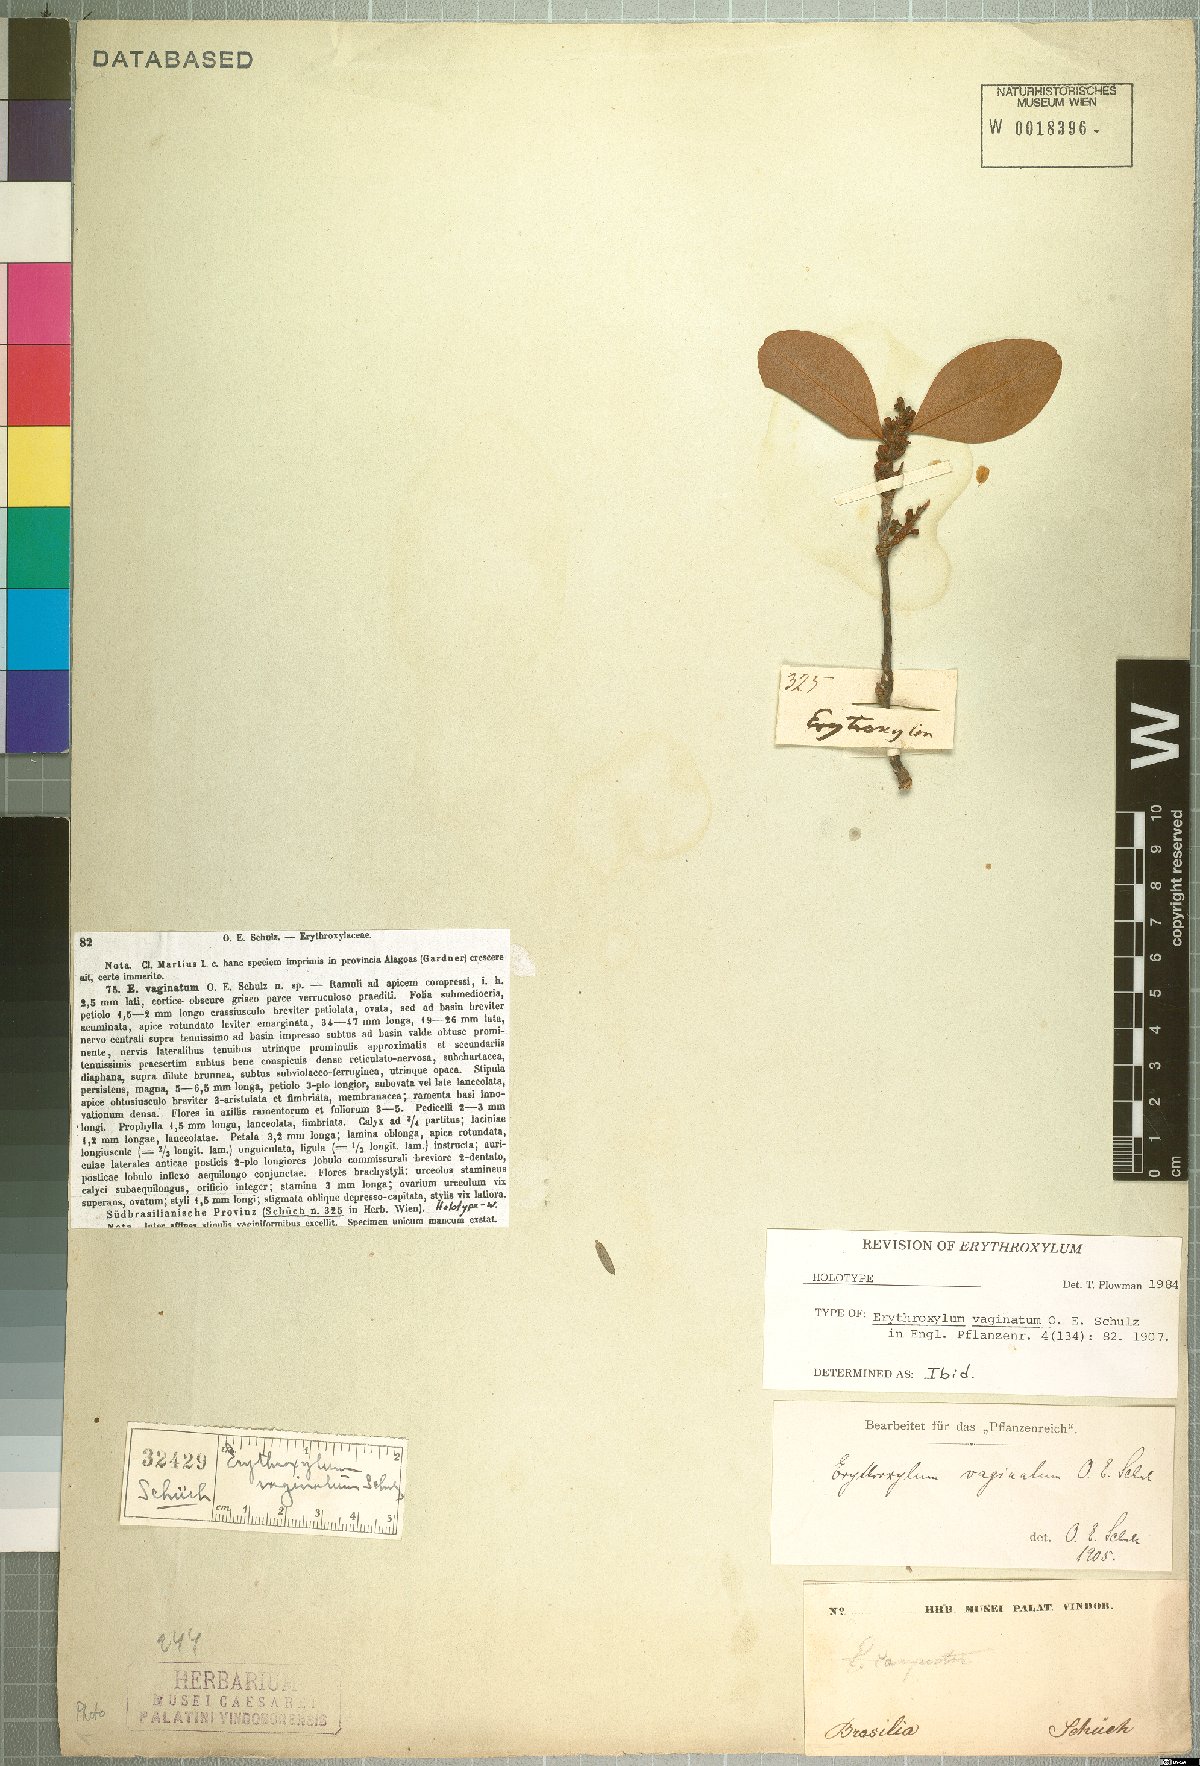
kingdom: Plantae
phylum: Tracheophyta
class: Magnoliopsida
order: Malpighiales
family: Erythroxylaceae
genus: Erythroxylum
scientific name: Erythroxylum vaginatum
